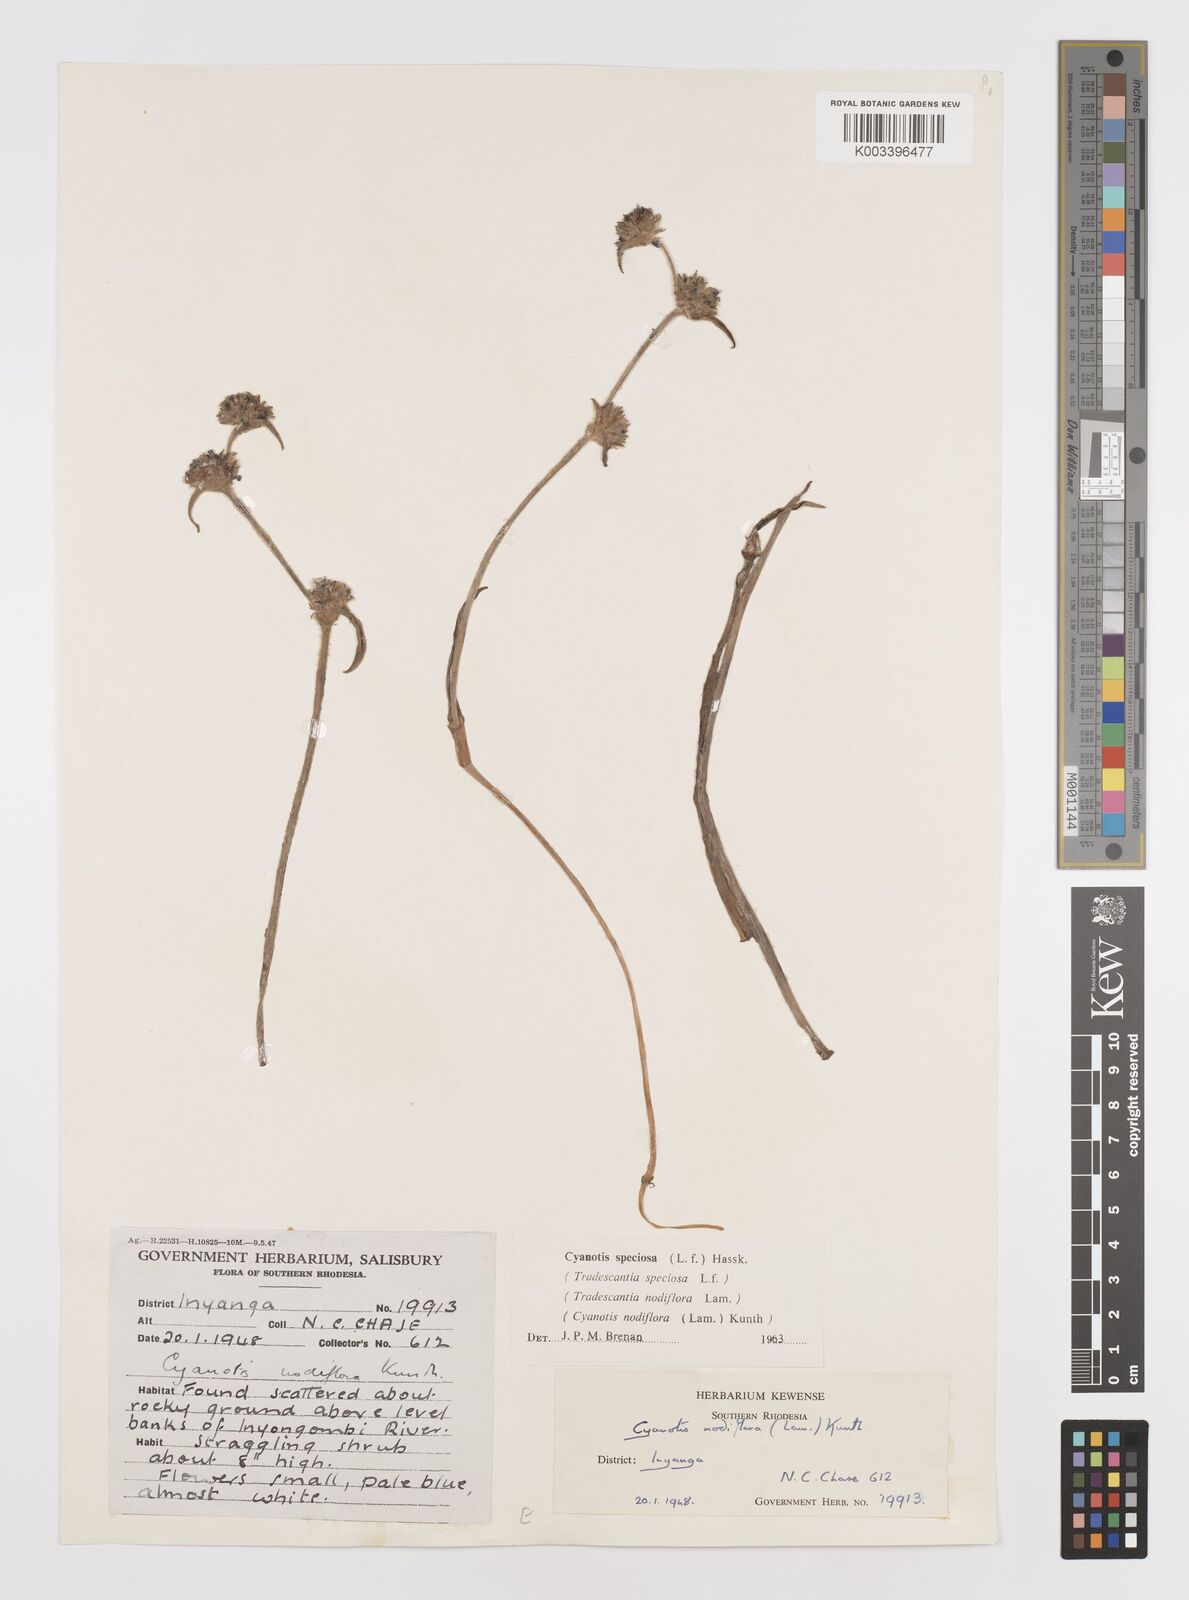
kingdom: Plantae
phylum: Tracheophyta
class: Liliopsida
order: Commelinales
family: Commelinaceae
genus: Cyanotis
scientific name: Cyanotis speciosa
